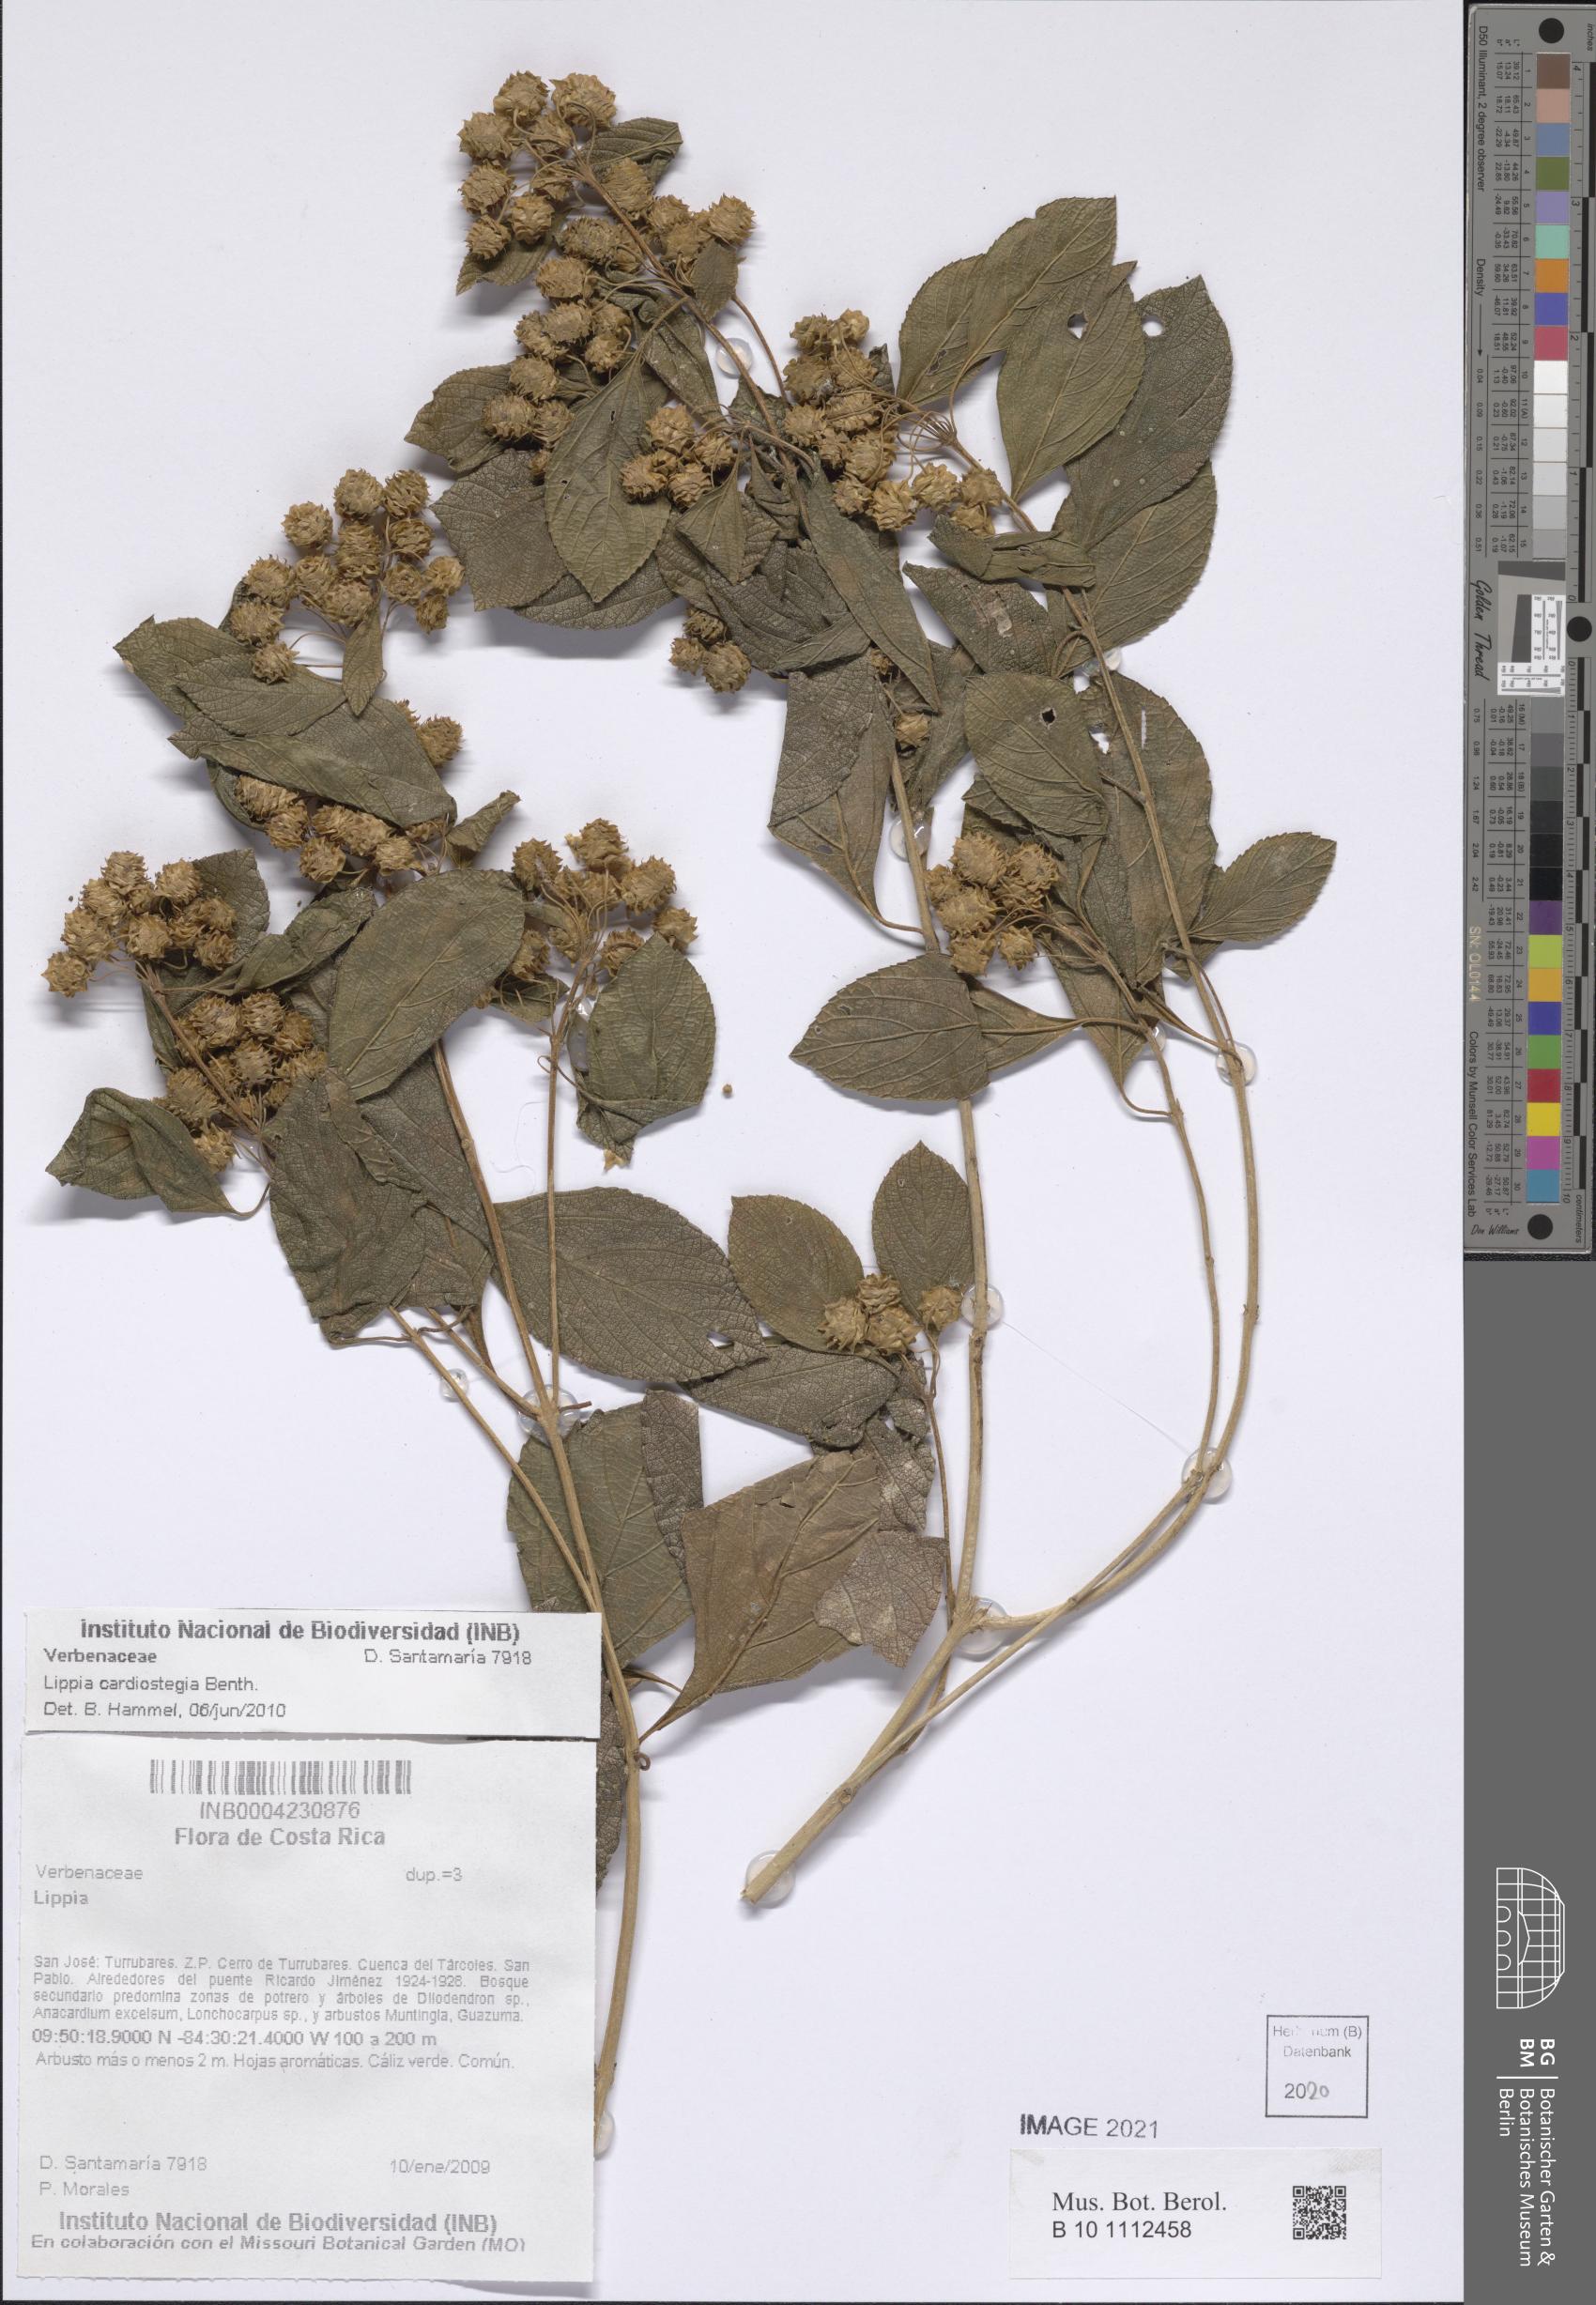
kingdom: Plantae
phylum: Tracheophyta
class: Magnoliopsida
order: Lamiales
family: Verbenaceae
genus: Lippia
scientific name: Lippia cardiostegia
